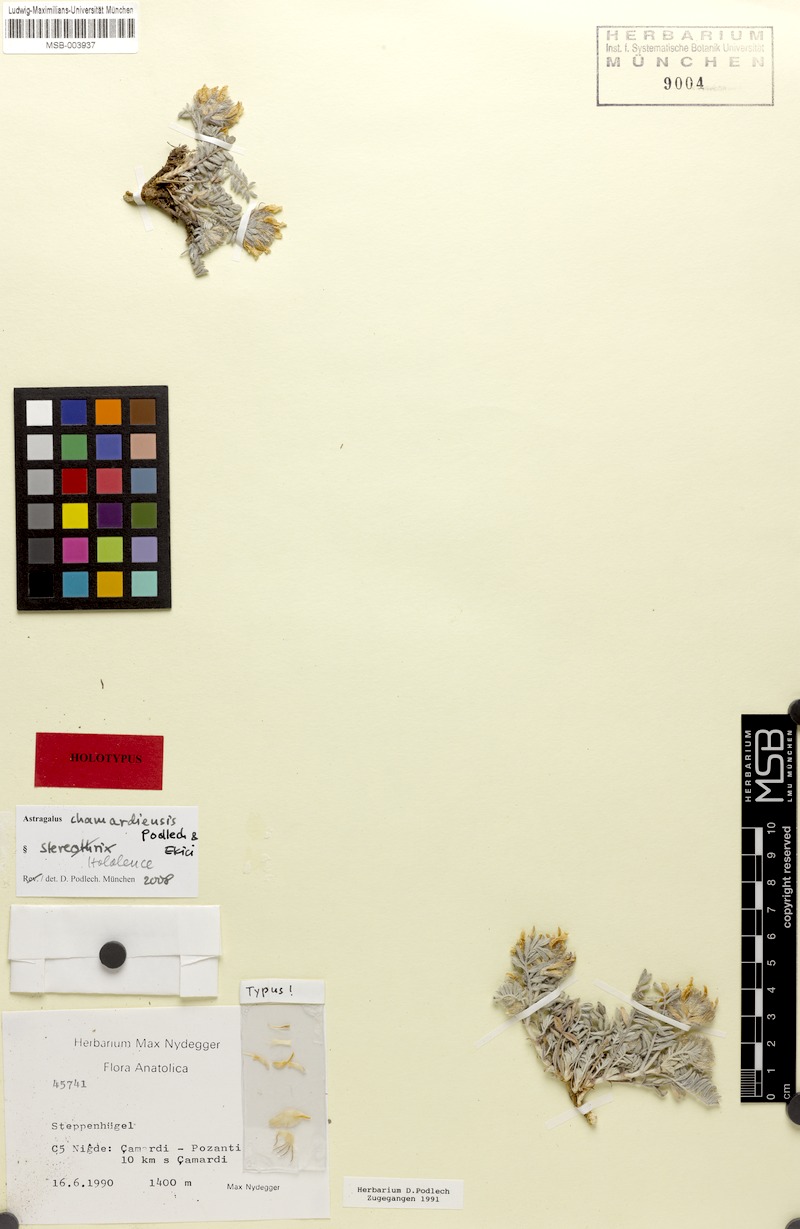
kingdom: Plantae
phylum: Tracheophyta
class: Magnoliopsida
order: Fabales
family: Fabaceae
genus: Astragalus
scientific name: Astragalus chamardiensis
